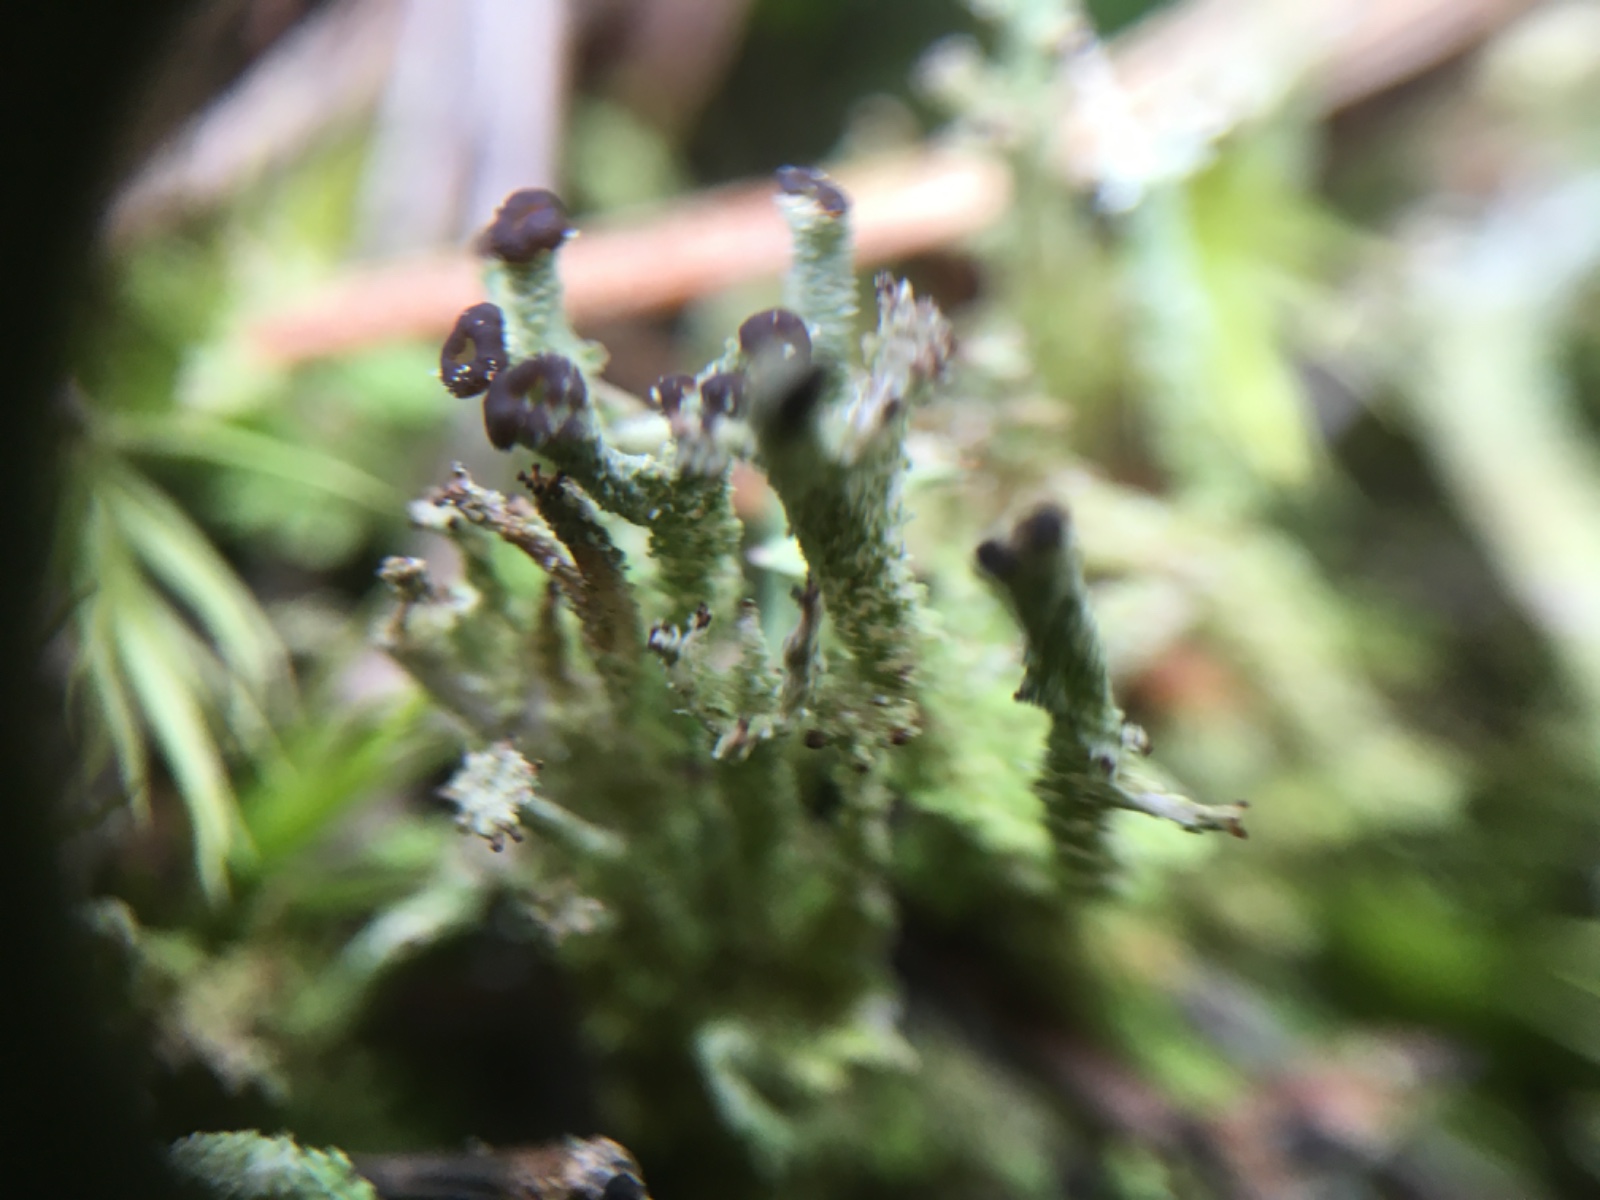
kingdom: Fungi
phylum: Ascomycota
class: Lecanoromycetes
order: Lecanorales
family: Cladoniaceae
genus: Cladonia
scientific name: Cladonia polydactyla
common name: vifte-bægerlav
